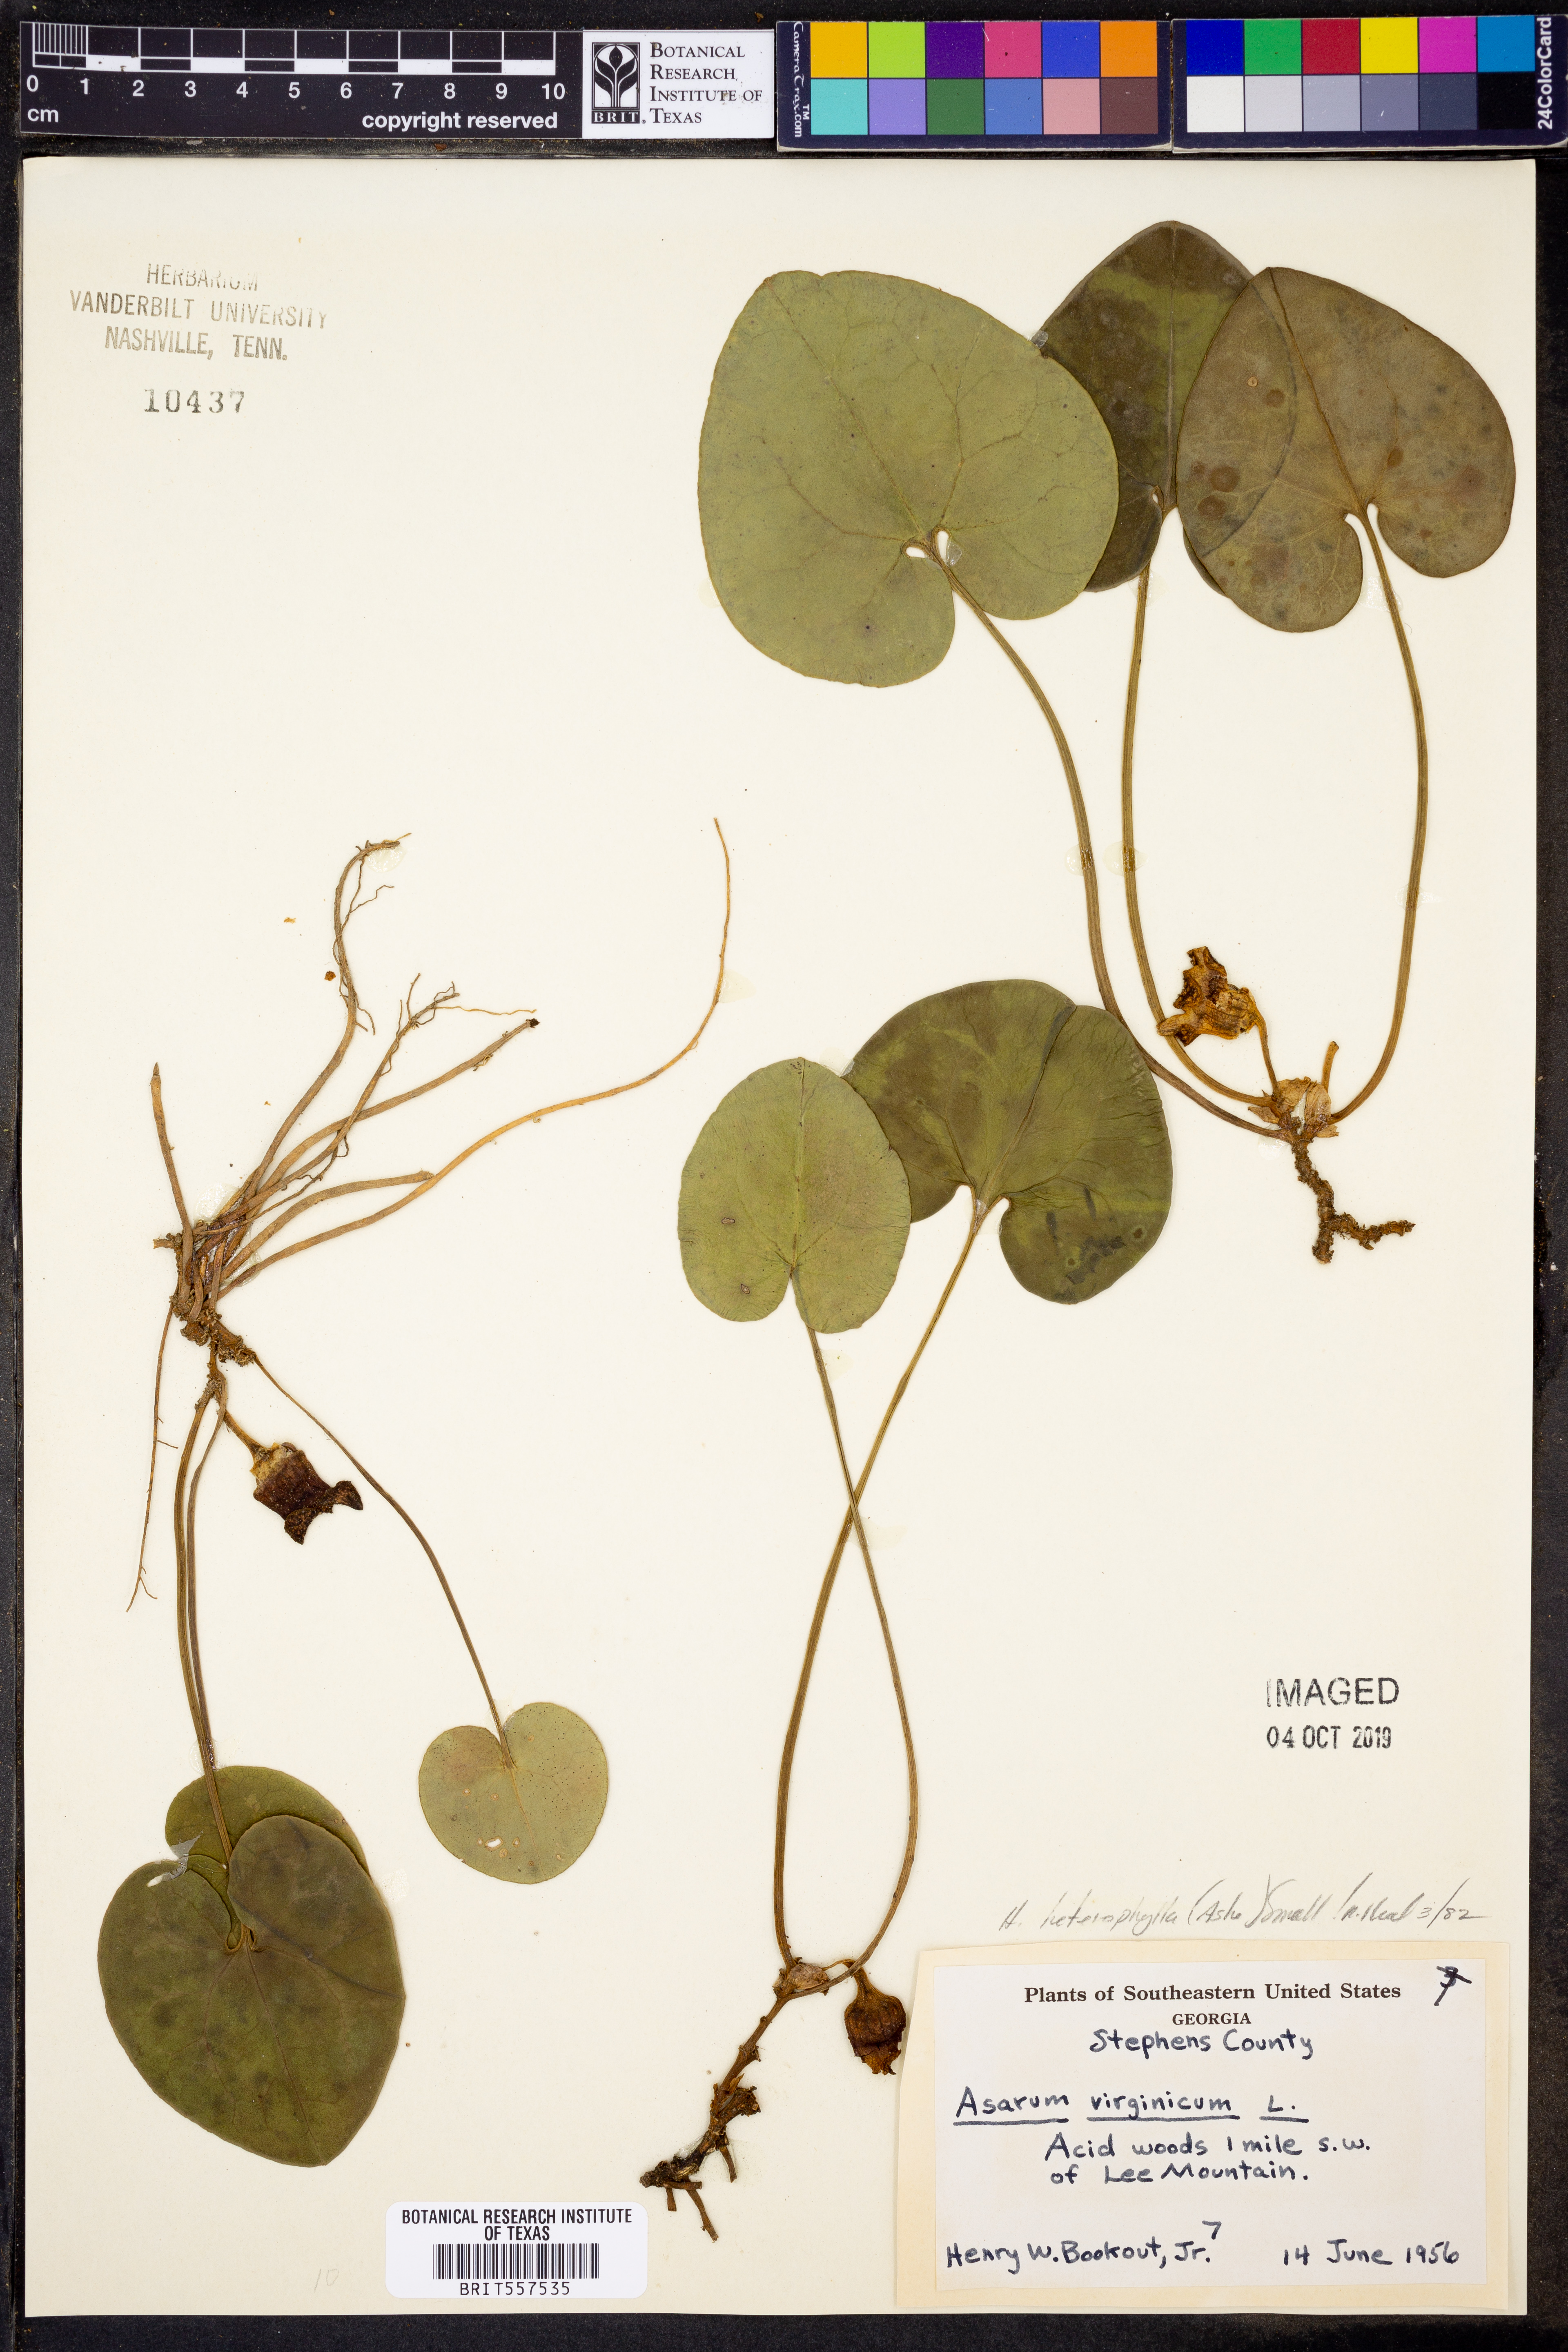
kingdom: Plantae
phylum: Tracheophyta
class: Magnoliopsida
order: Piperales
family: Aristolochiaceae
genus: Hexastylis
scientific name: Hexastylis heterophylla
